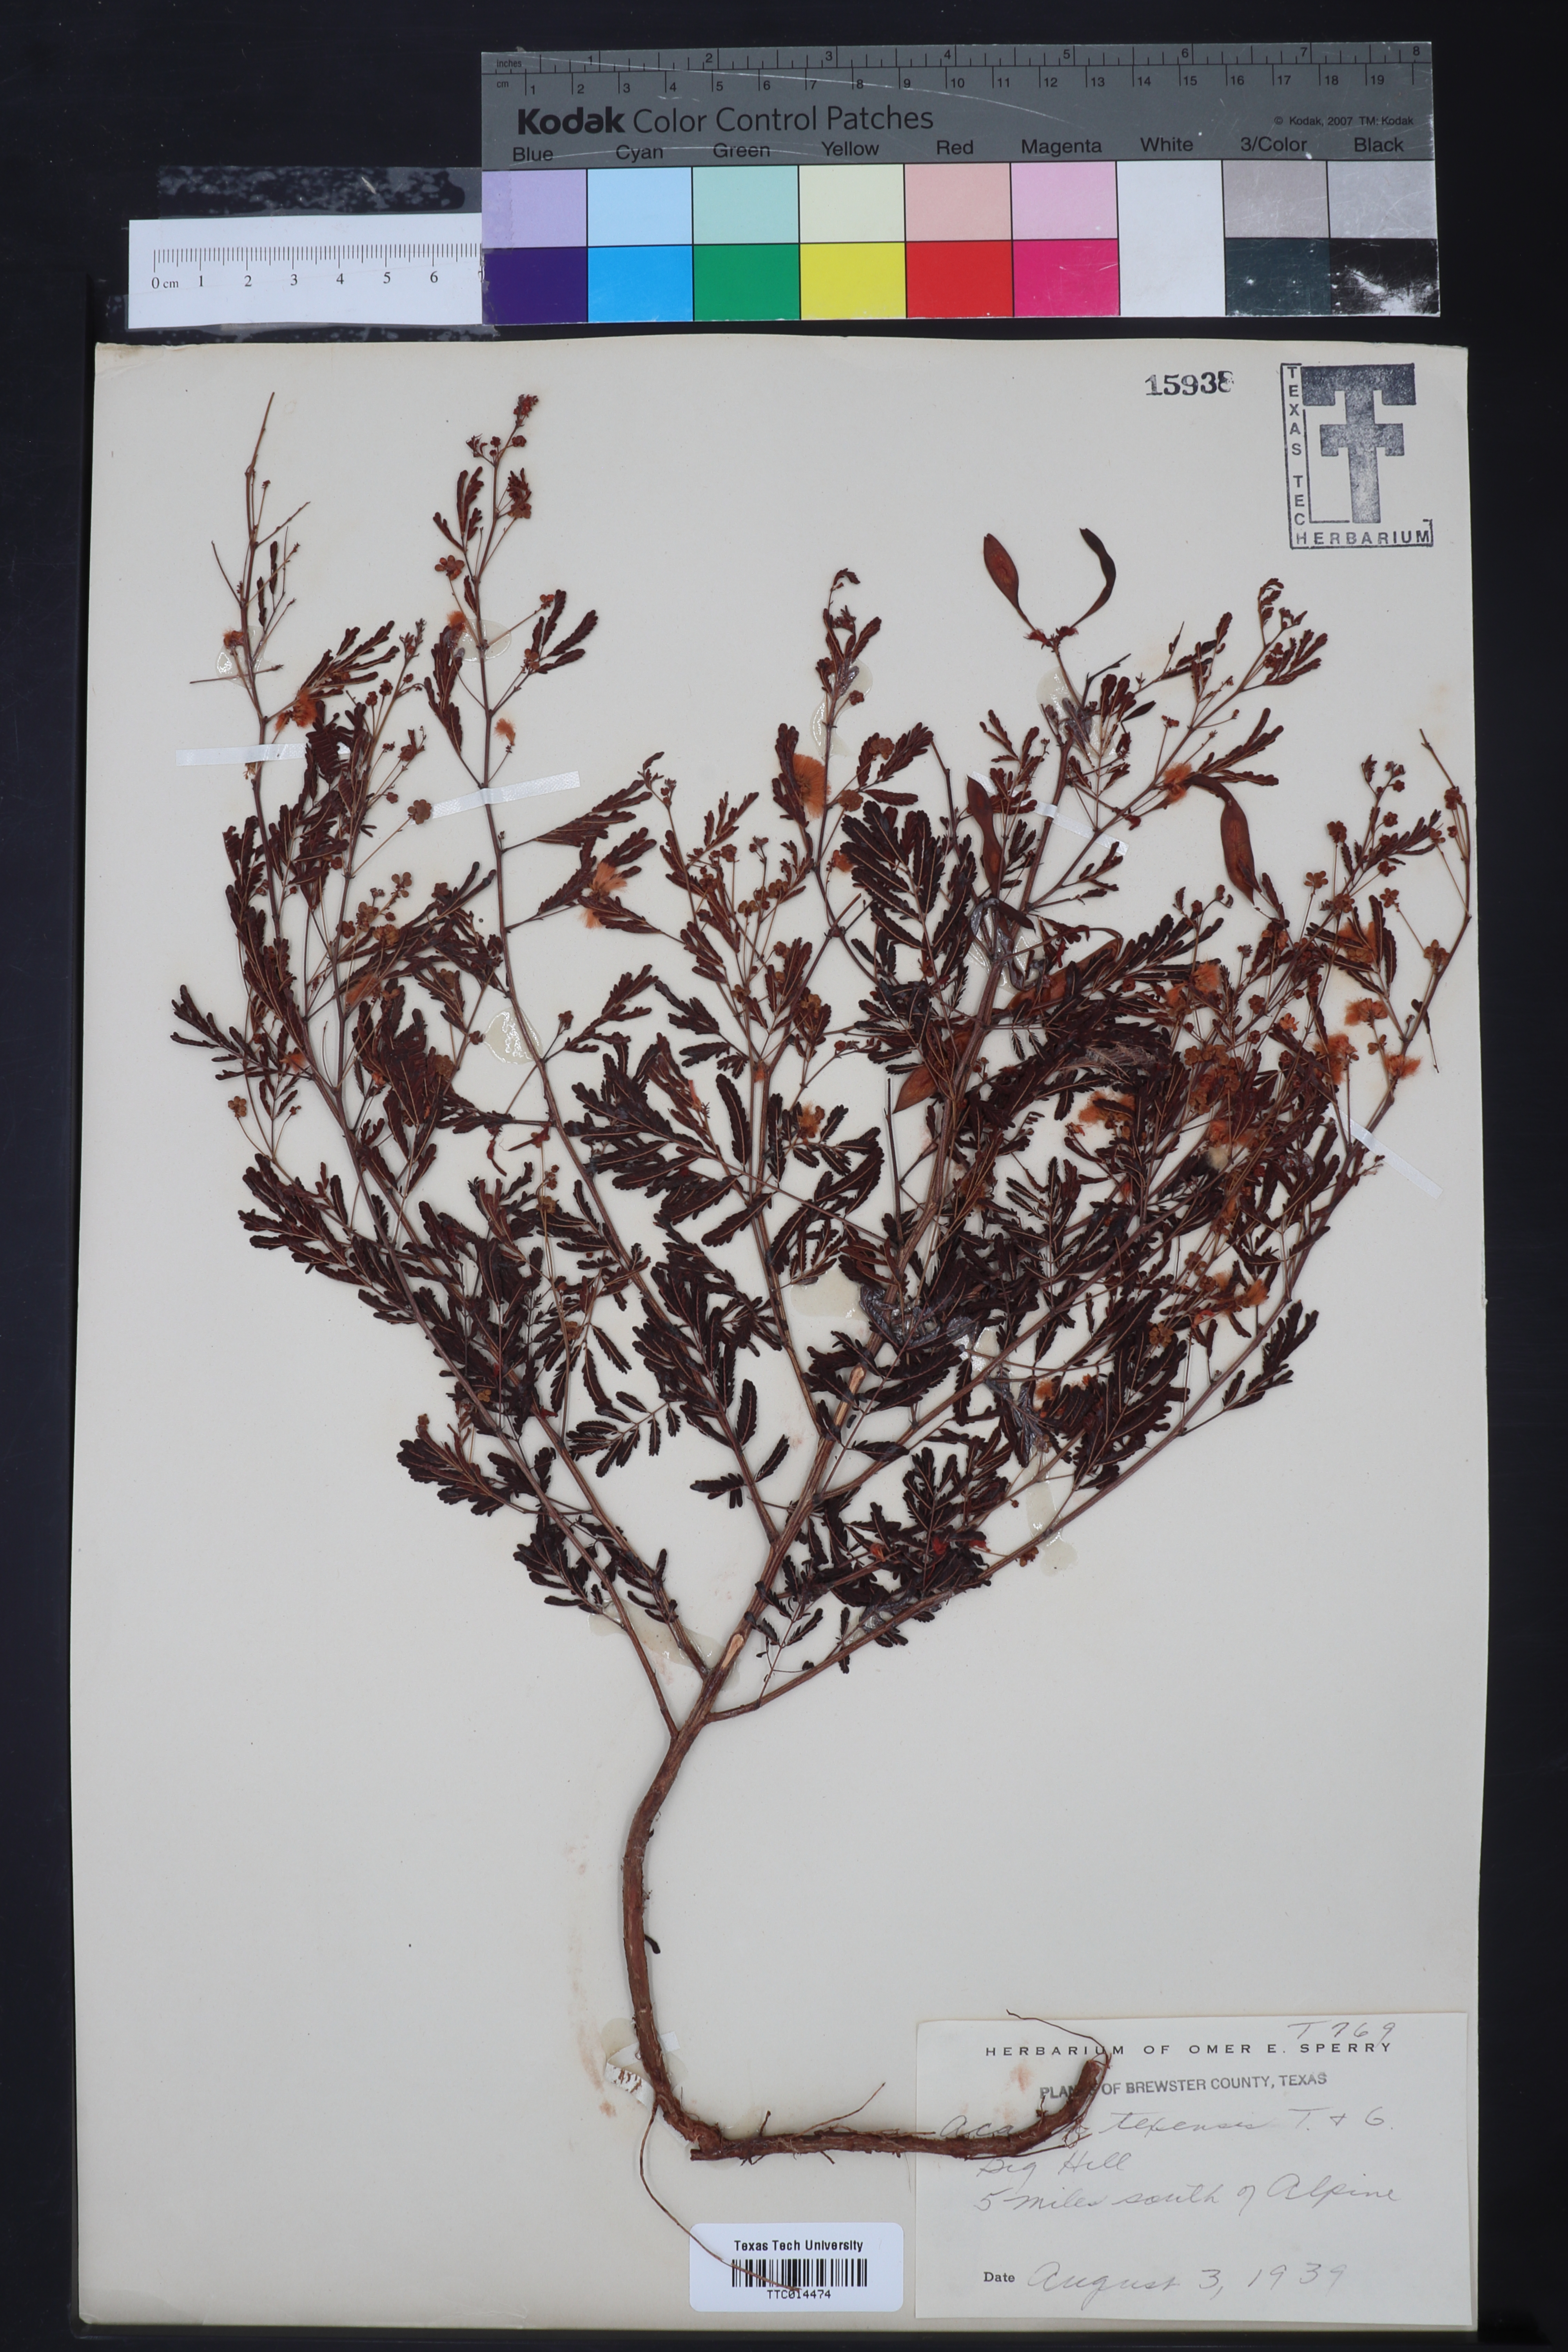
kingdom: Plantae
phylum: Tracheophyta
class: Magnoliopsida
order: Fabales
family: Fabaceae
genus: Acaciella
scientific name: Acaciella angustissima
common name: Prairie acacia
